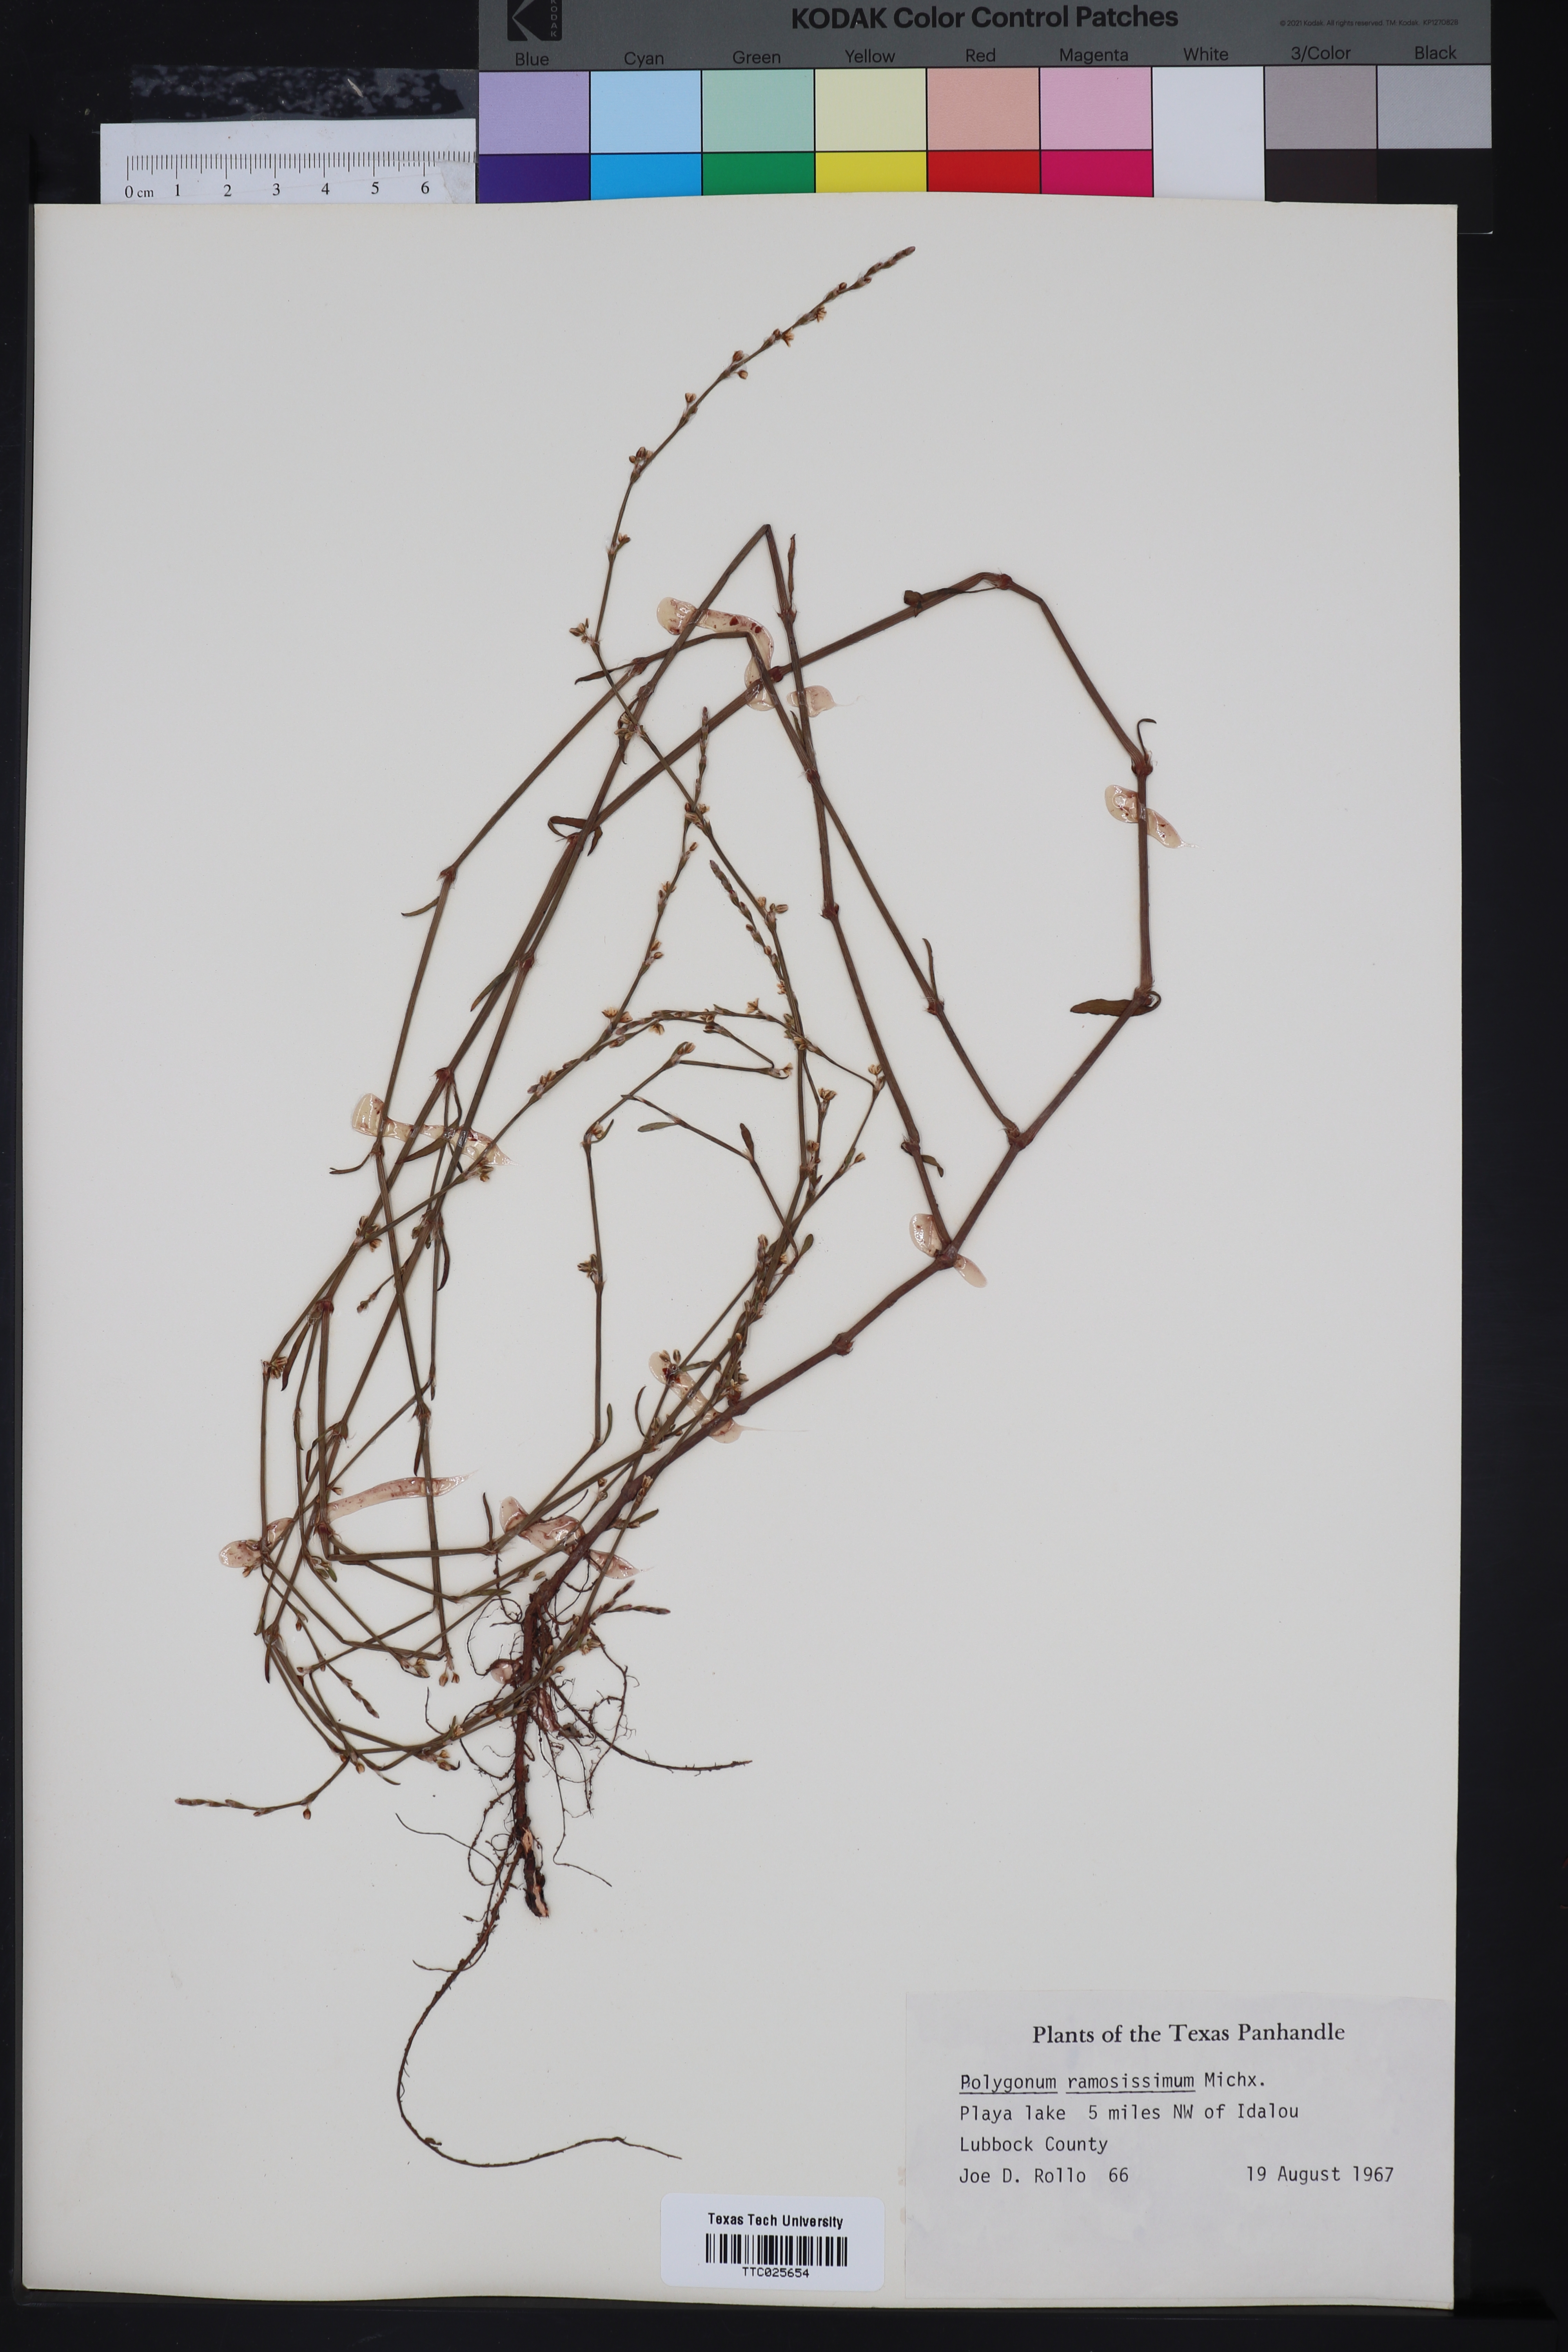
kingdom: Plantae
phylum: Tracheophyta
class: Magnoliopsida
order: Caryophyllales
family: Polygonaceae
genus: Polygonum
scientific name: Polygonum ramosissimum
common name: Bushy knotweed
